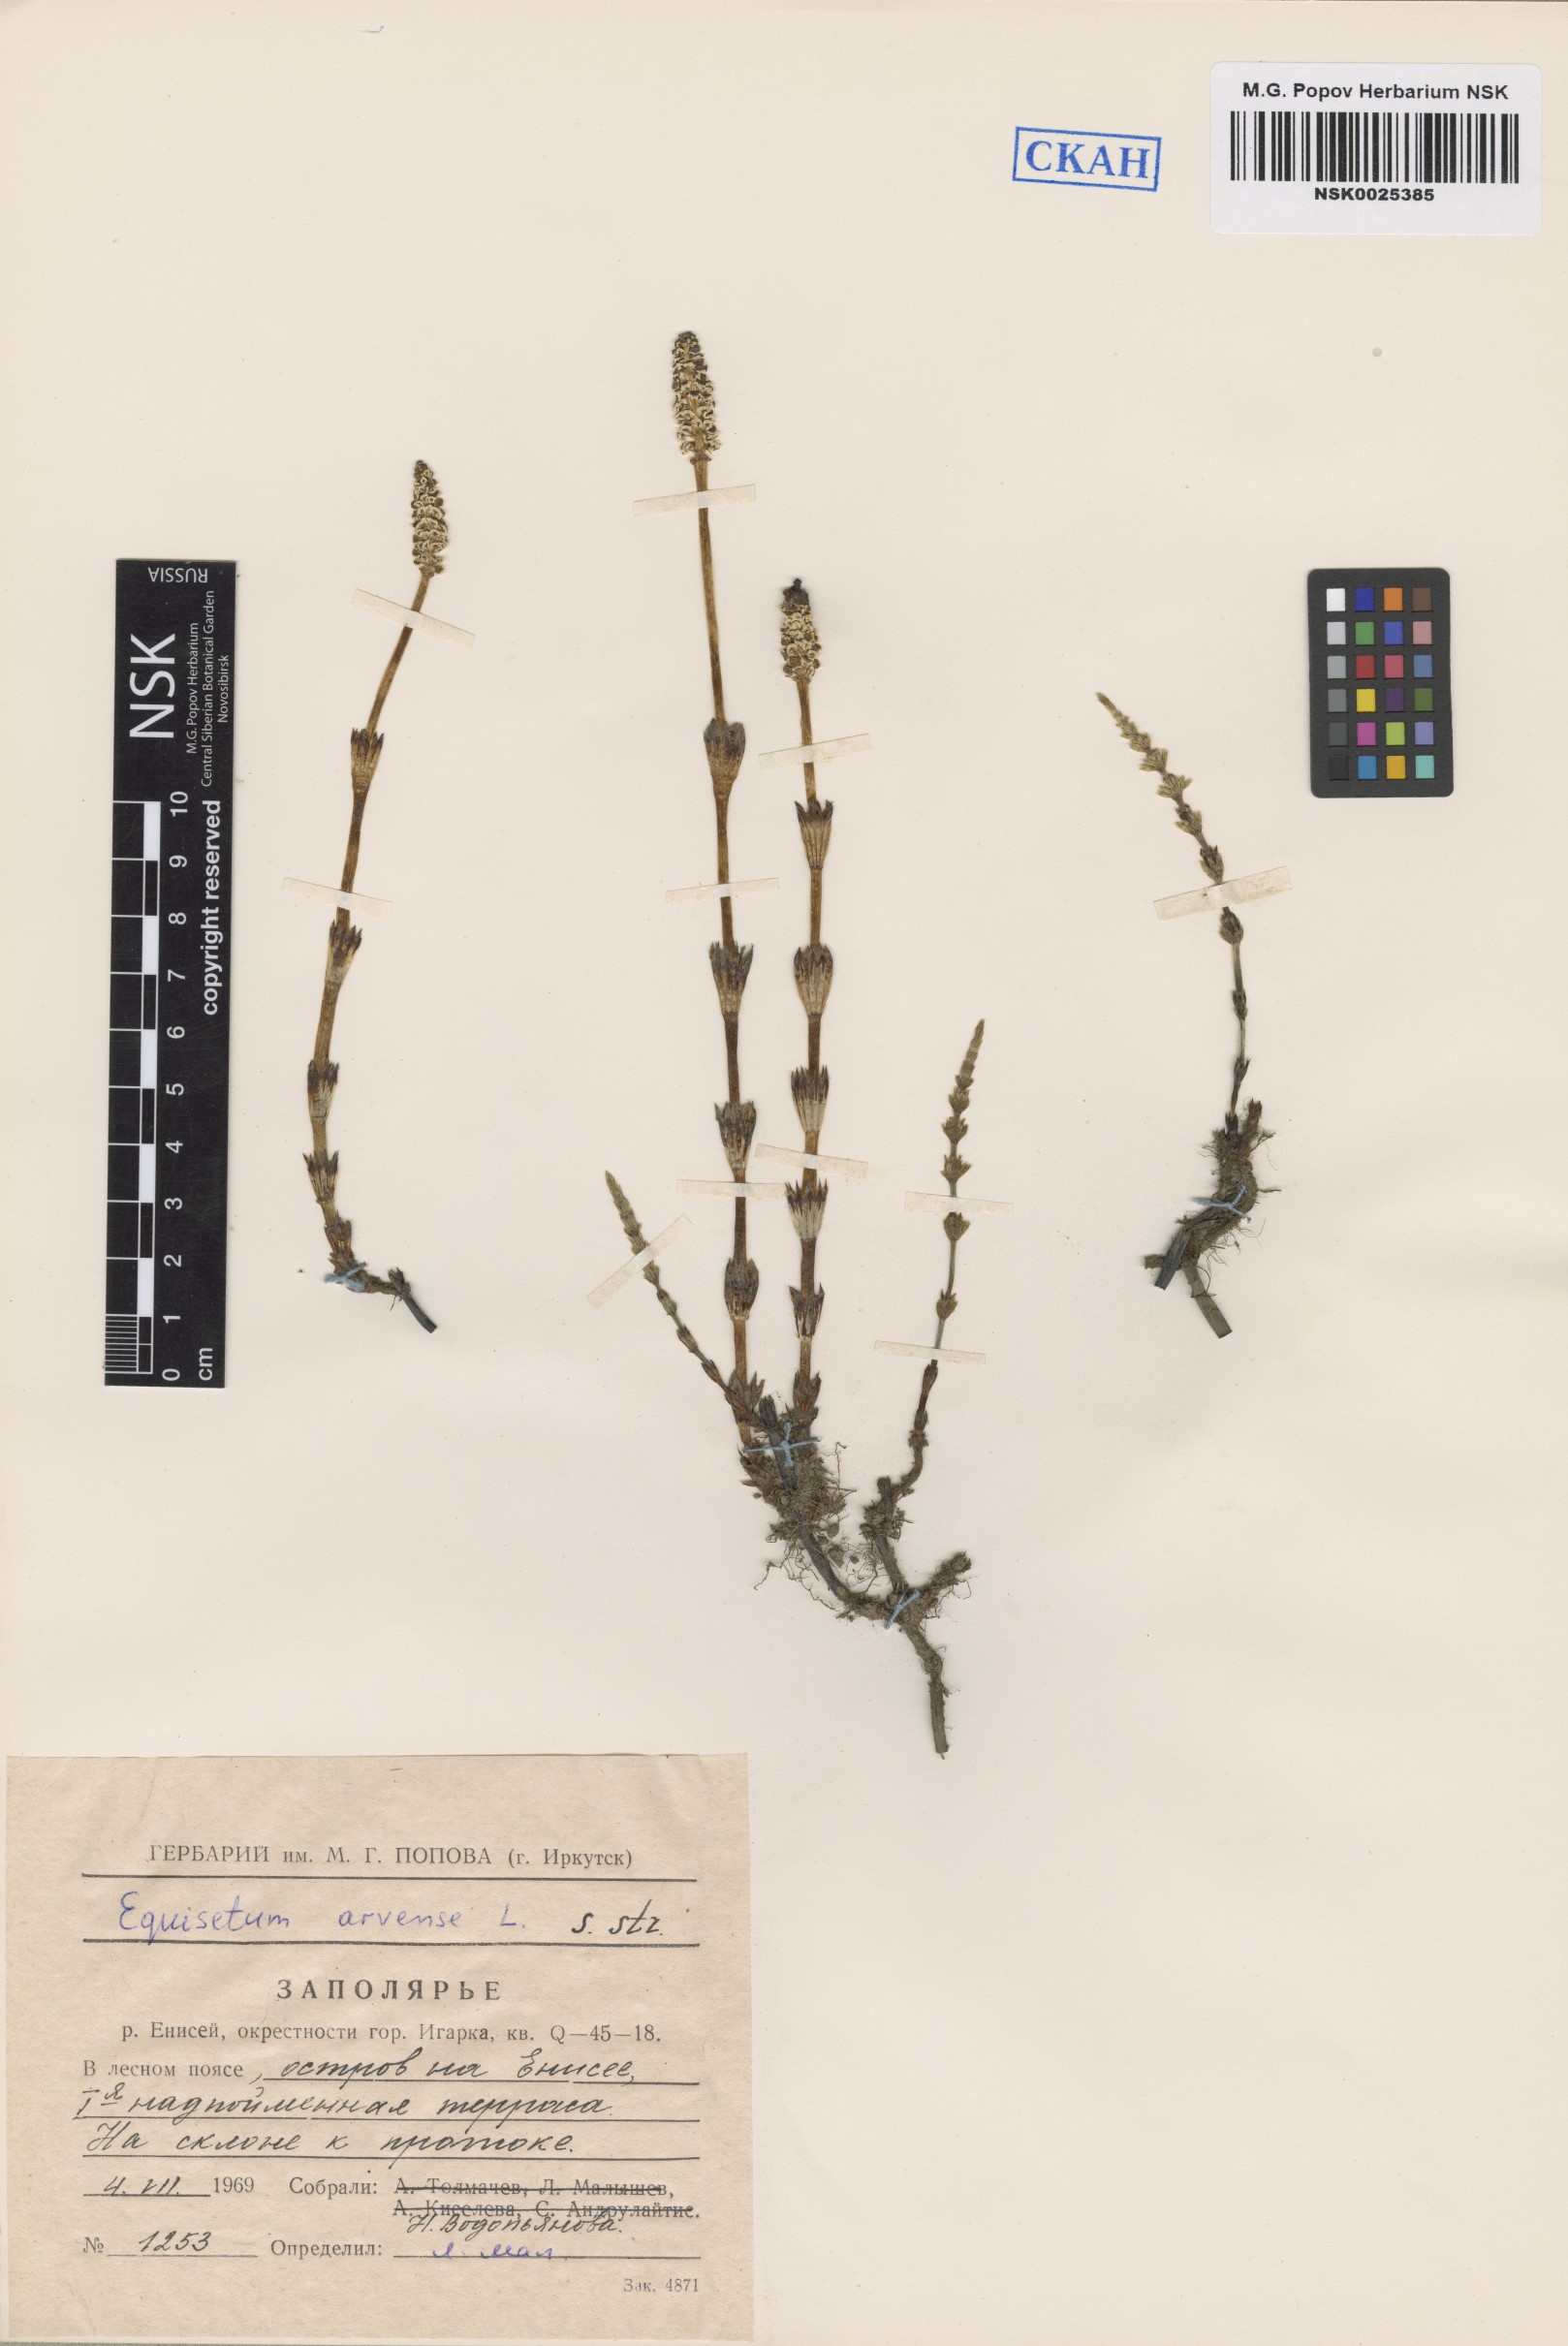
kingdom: Plantae
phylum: Tracheophyta
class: Polypodiopsida
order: Equisetales
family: Equisetaceae
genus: Equisetum
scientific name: Equisetum arvense
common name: Field horsetail
